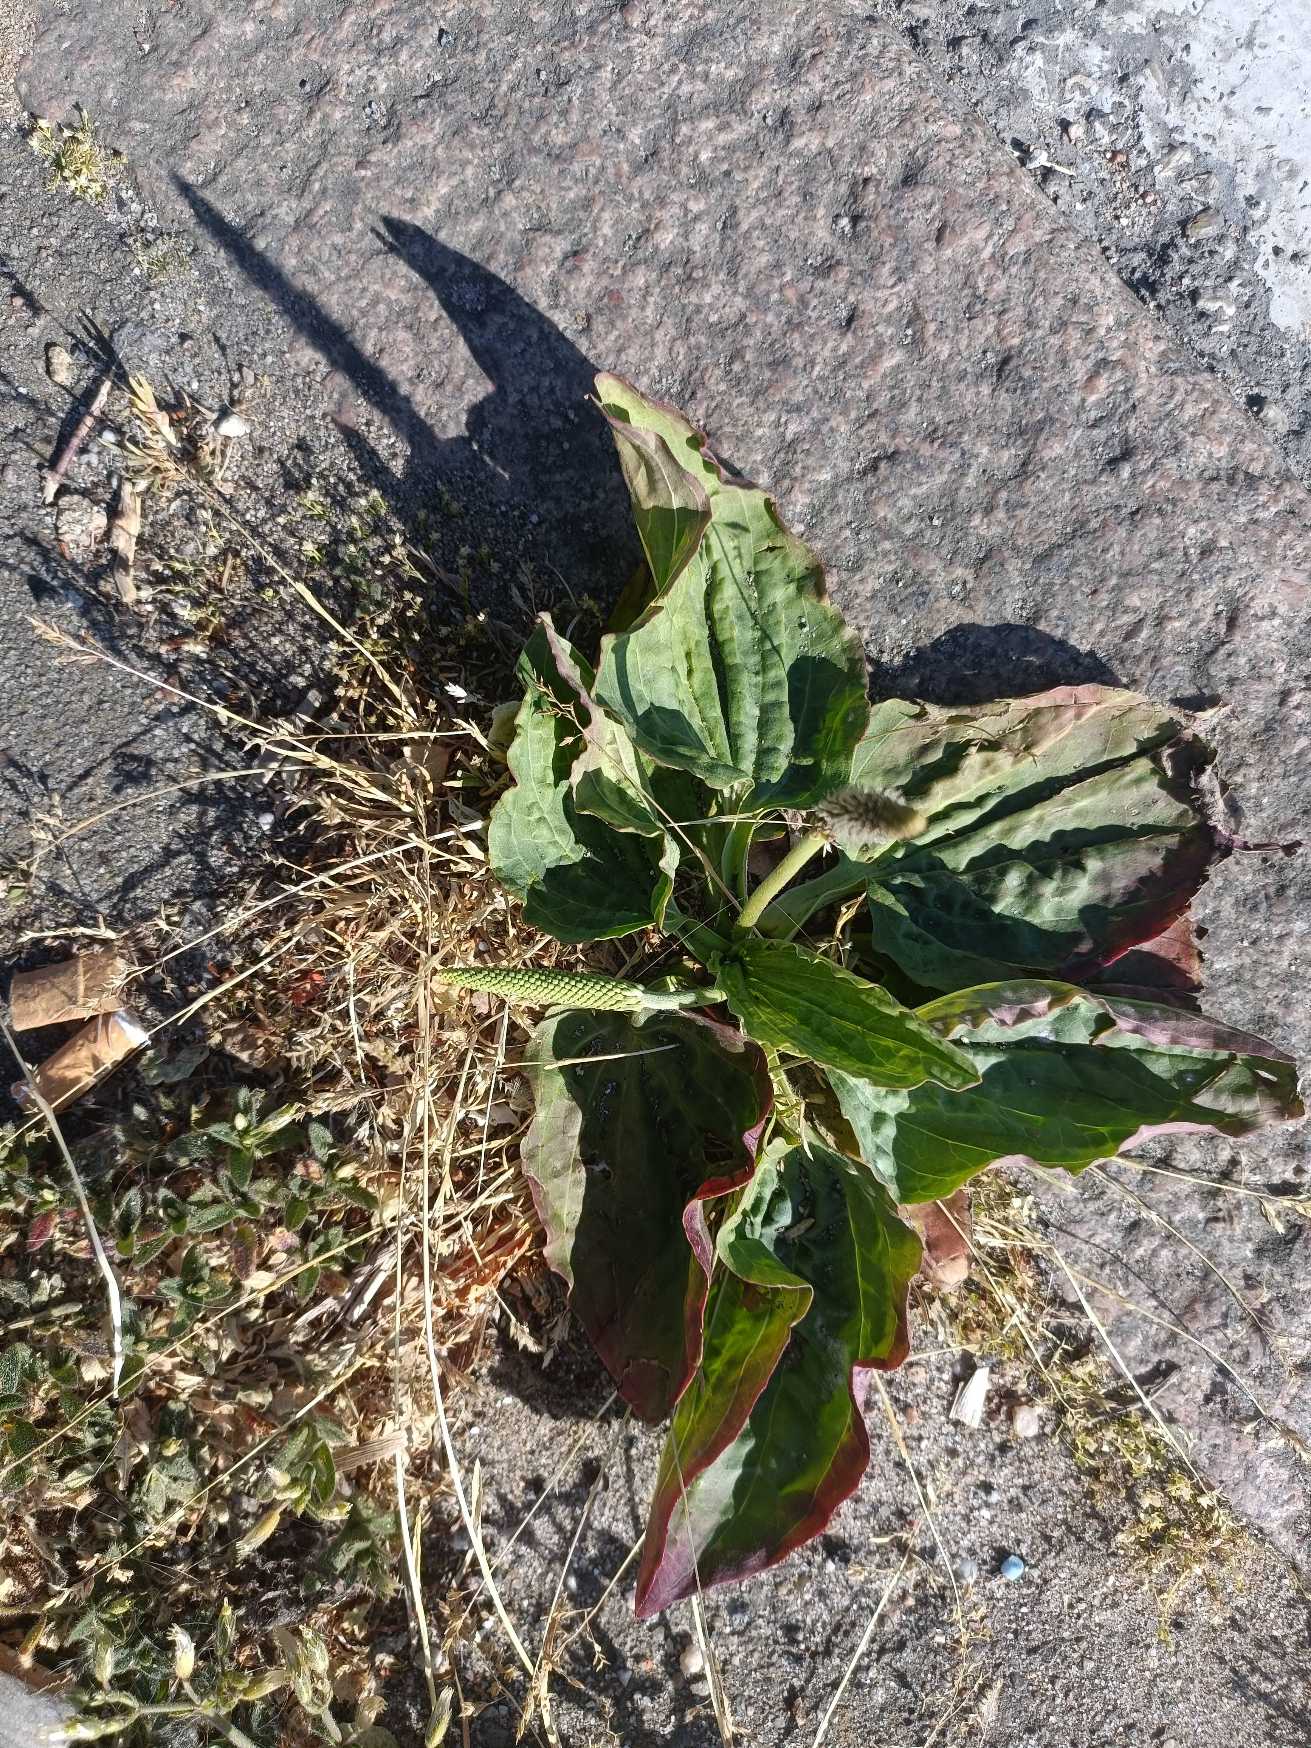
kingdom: Plantae
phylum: Tracheophyta
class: Magnoliopsida
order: Lamiales
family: Plantaginaceae
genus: Plantago
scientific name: Plantago major
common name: Glat vejbred
